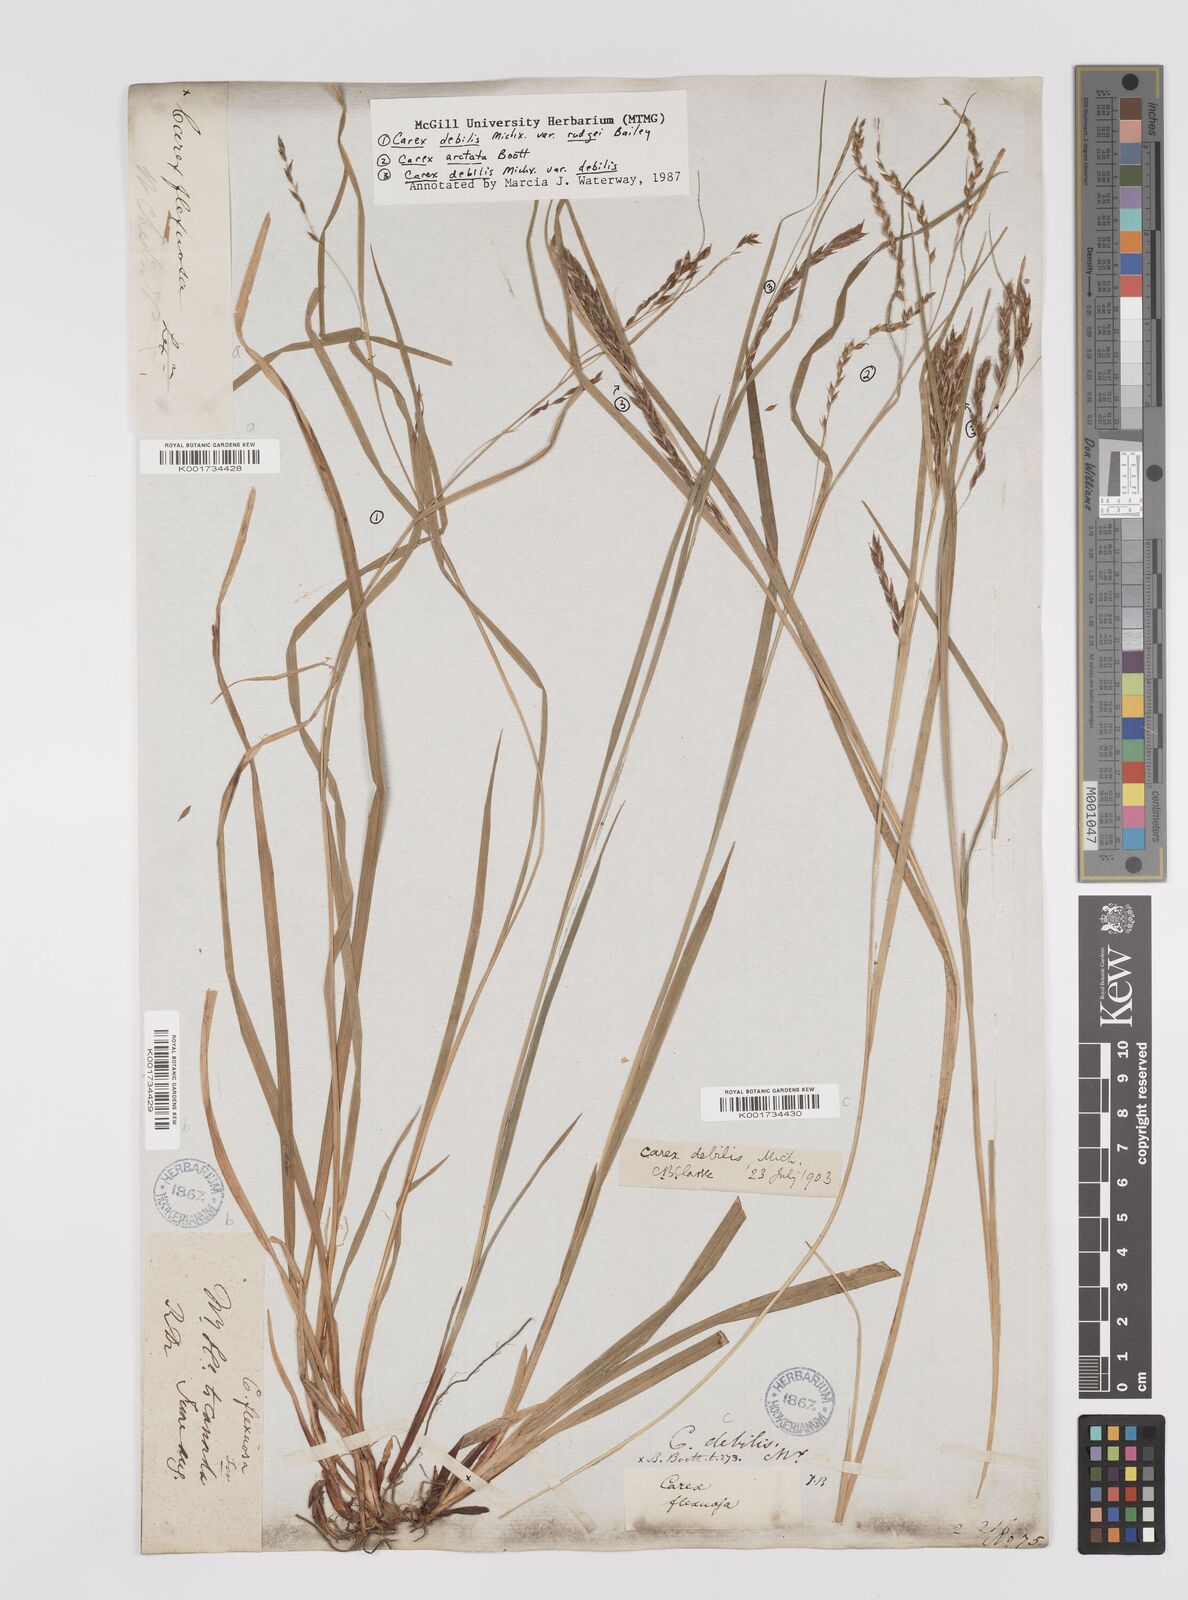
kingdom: Plantae
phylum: Tracheophyta
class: Liliopsida
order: Poales
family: Cyperaceae
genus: Carex
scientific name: Carex debilis
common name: White-edge sedge
